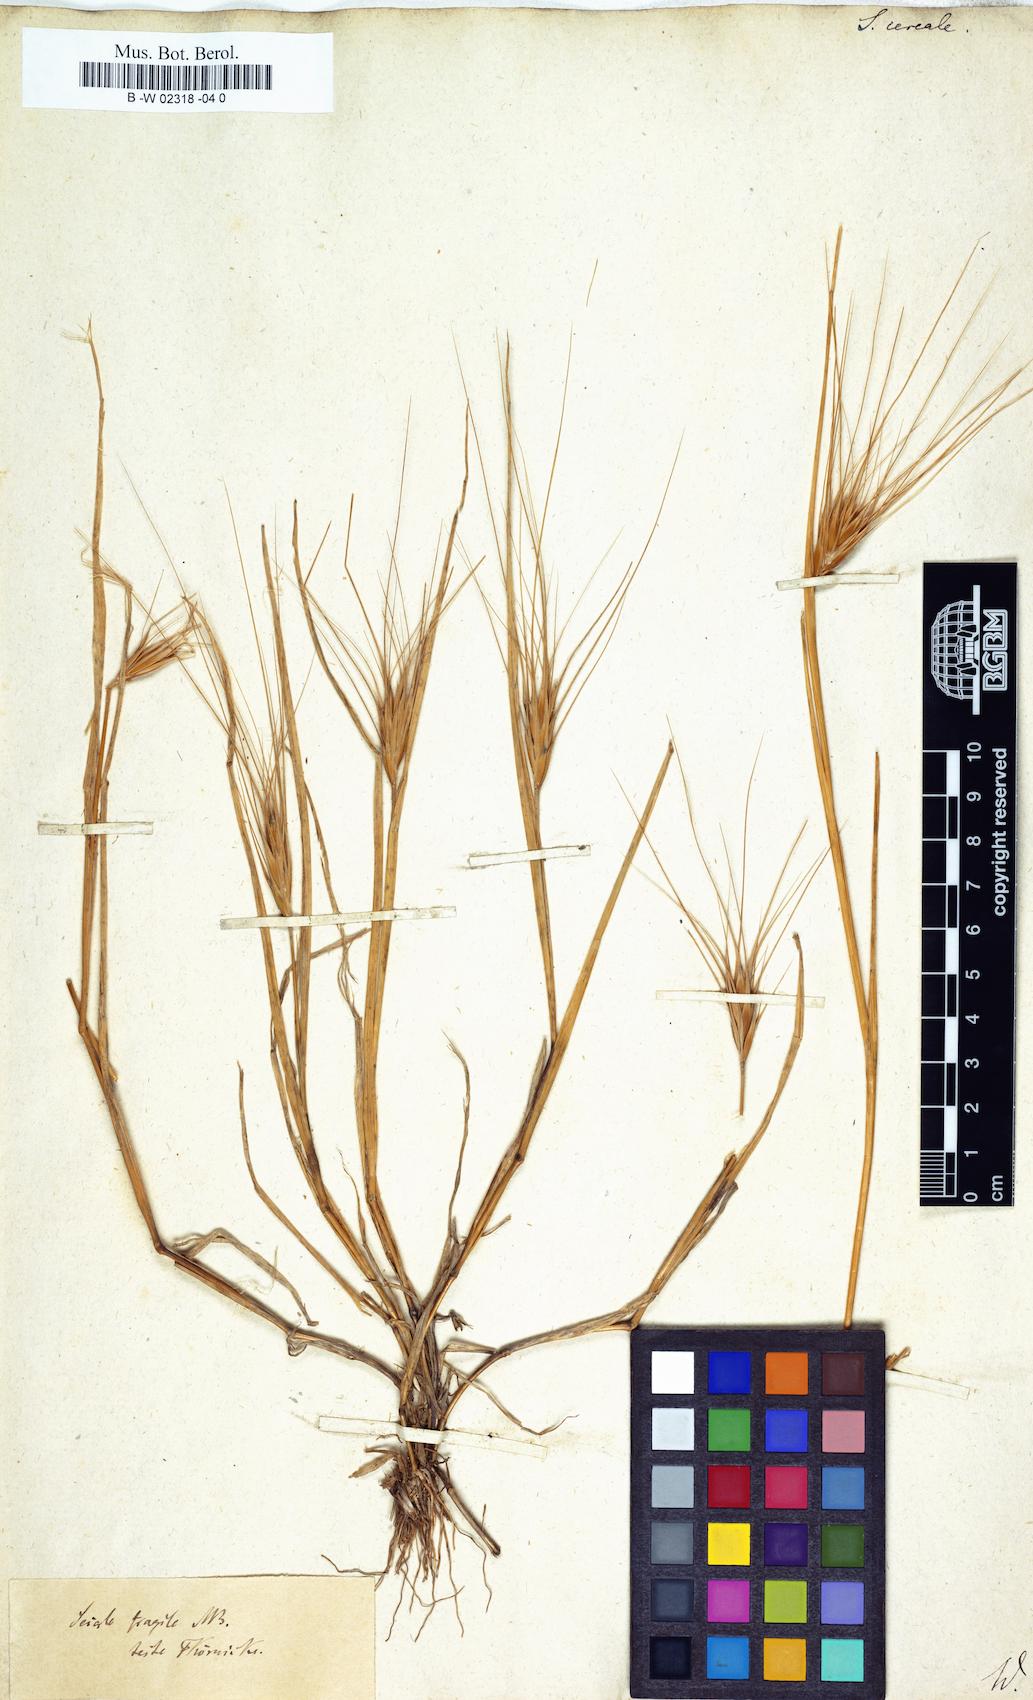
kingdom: Plantae
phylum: Tracheophyta
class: Liliopsida
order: Poales
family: Poaceae
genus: Secale
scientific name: Secale cereale
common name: Rye
